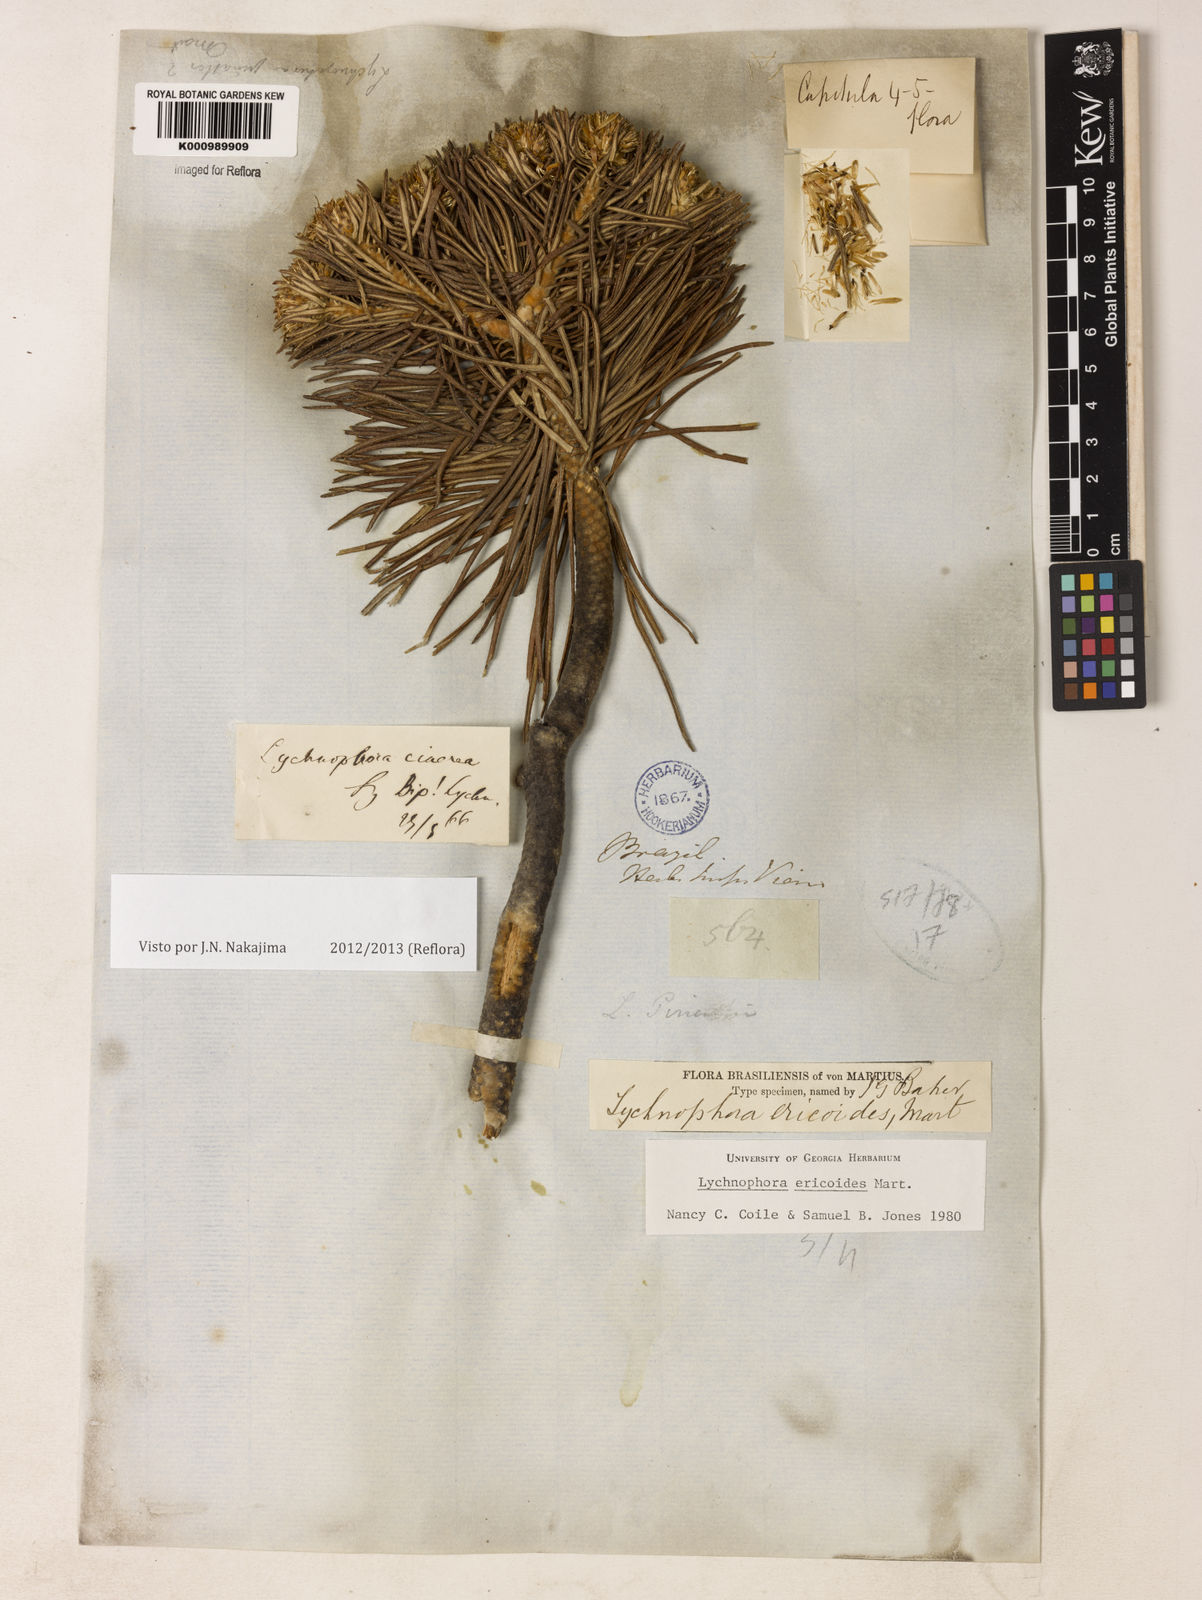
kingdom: Plantae
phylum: Tracheophyta
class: Magnoliopsida
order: Asterales
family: Asteraceae
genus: Lychnophora
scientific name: Lychnophora ericoides
